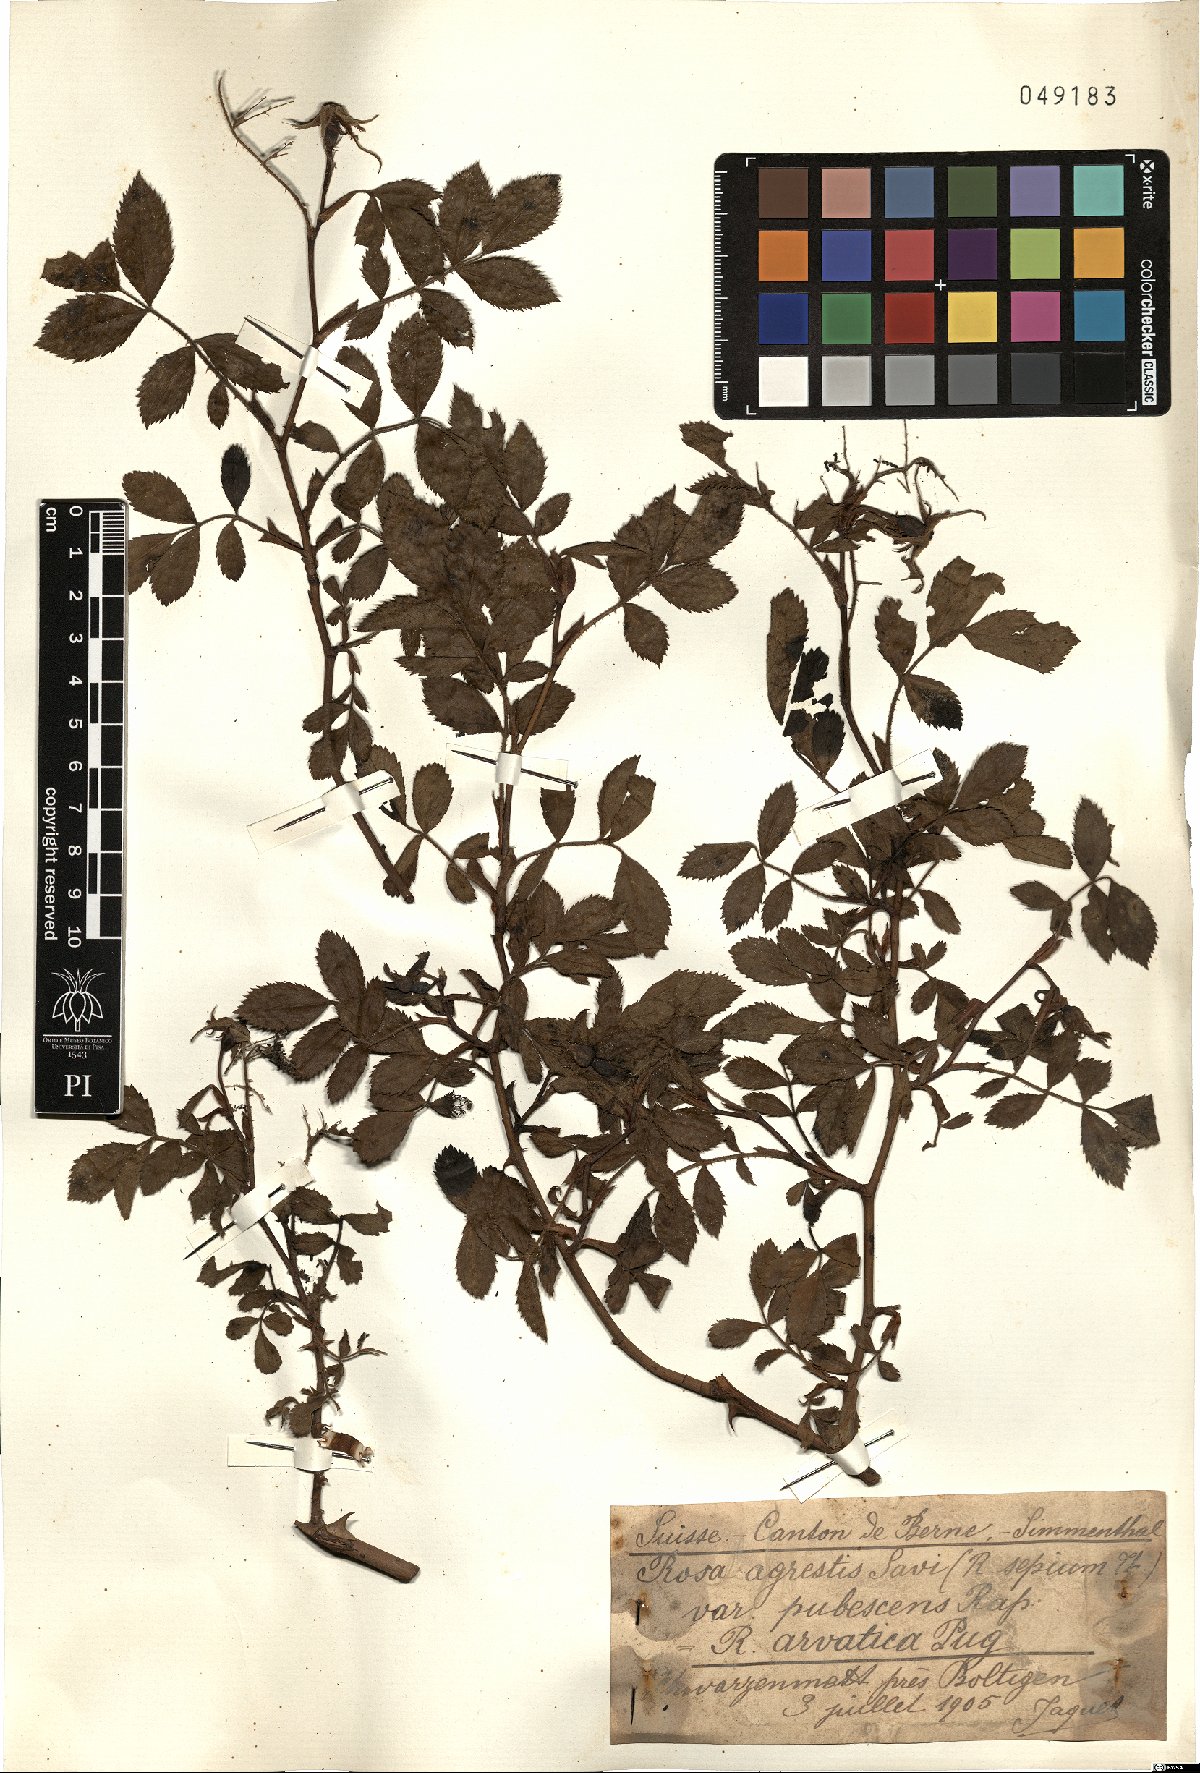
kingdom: Plantae
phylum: Tracheophyta
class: Magnoliopsida
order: Rosales
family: Rosaceae
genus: Rosa
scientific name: Rosa agrestis
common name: Fieldbriar
